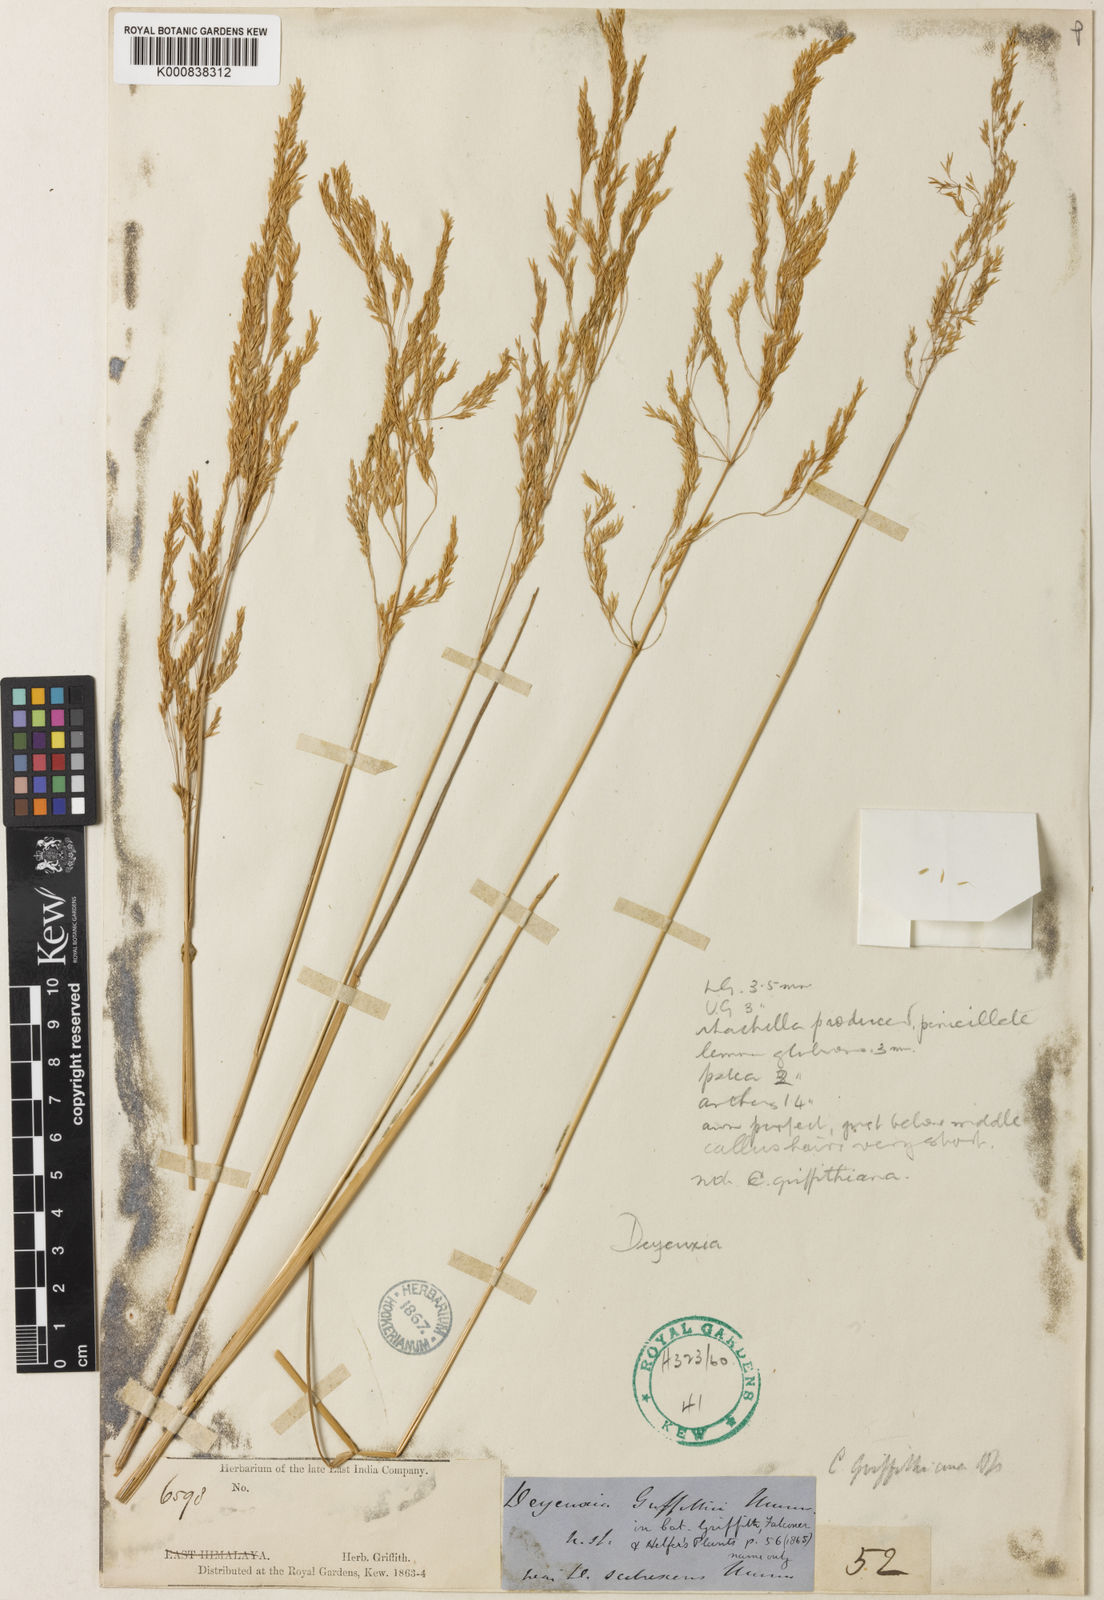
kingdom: Plantae
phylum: Tracheophyta
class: Liliopsida
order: Poales
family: Poaceae
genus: Calamagrostis
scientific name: Calamagrostis griffithii
